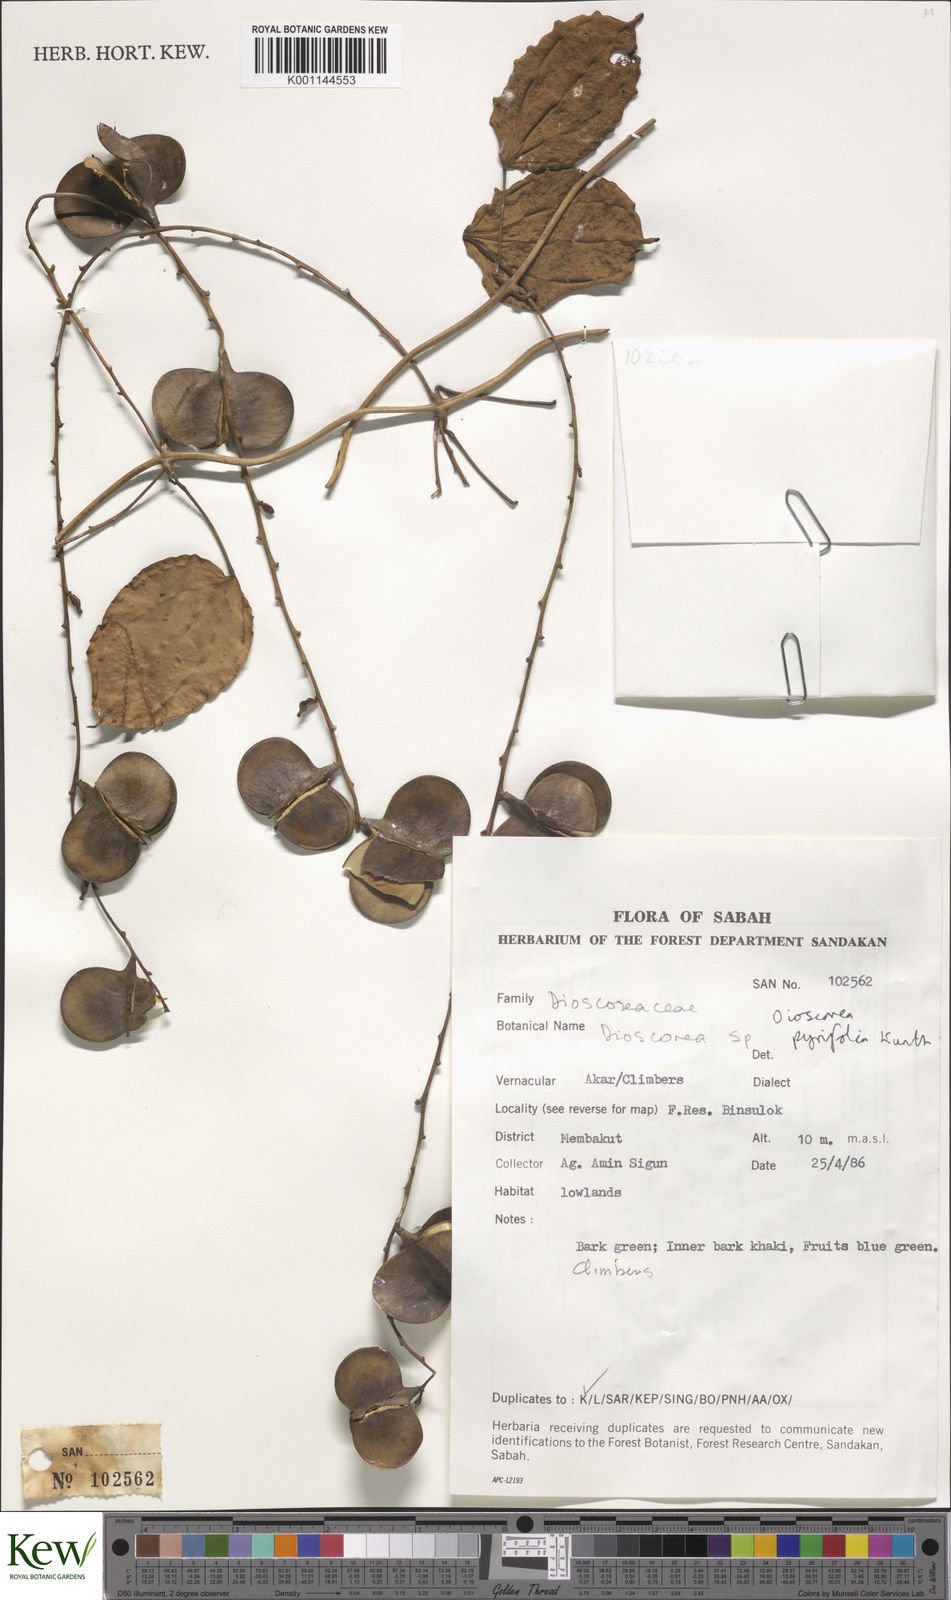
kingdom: Plantae
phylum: Tracheophyta
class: Liliopsida
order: Dioscoreales
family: Dioscoreaceae
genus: Dioscorea
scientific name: Dioscorea pyrifolia
